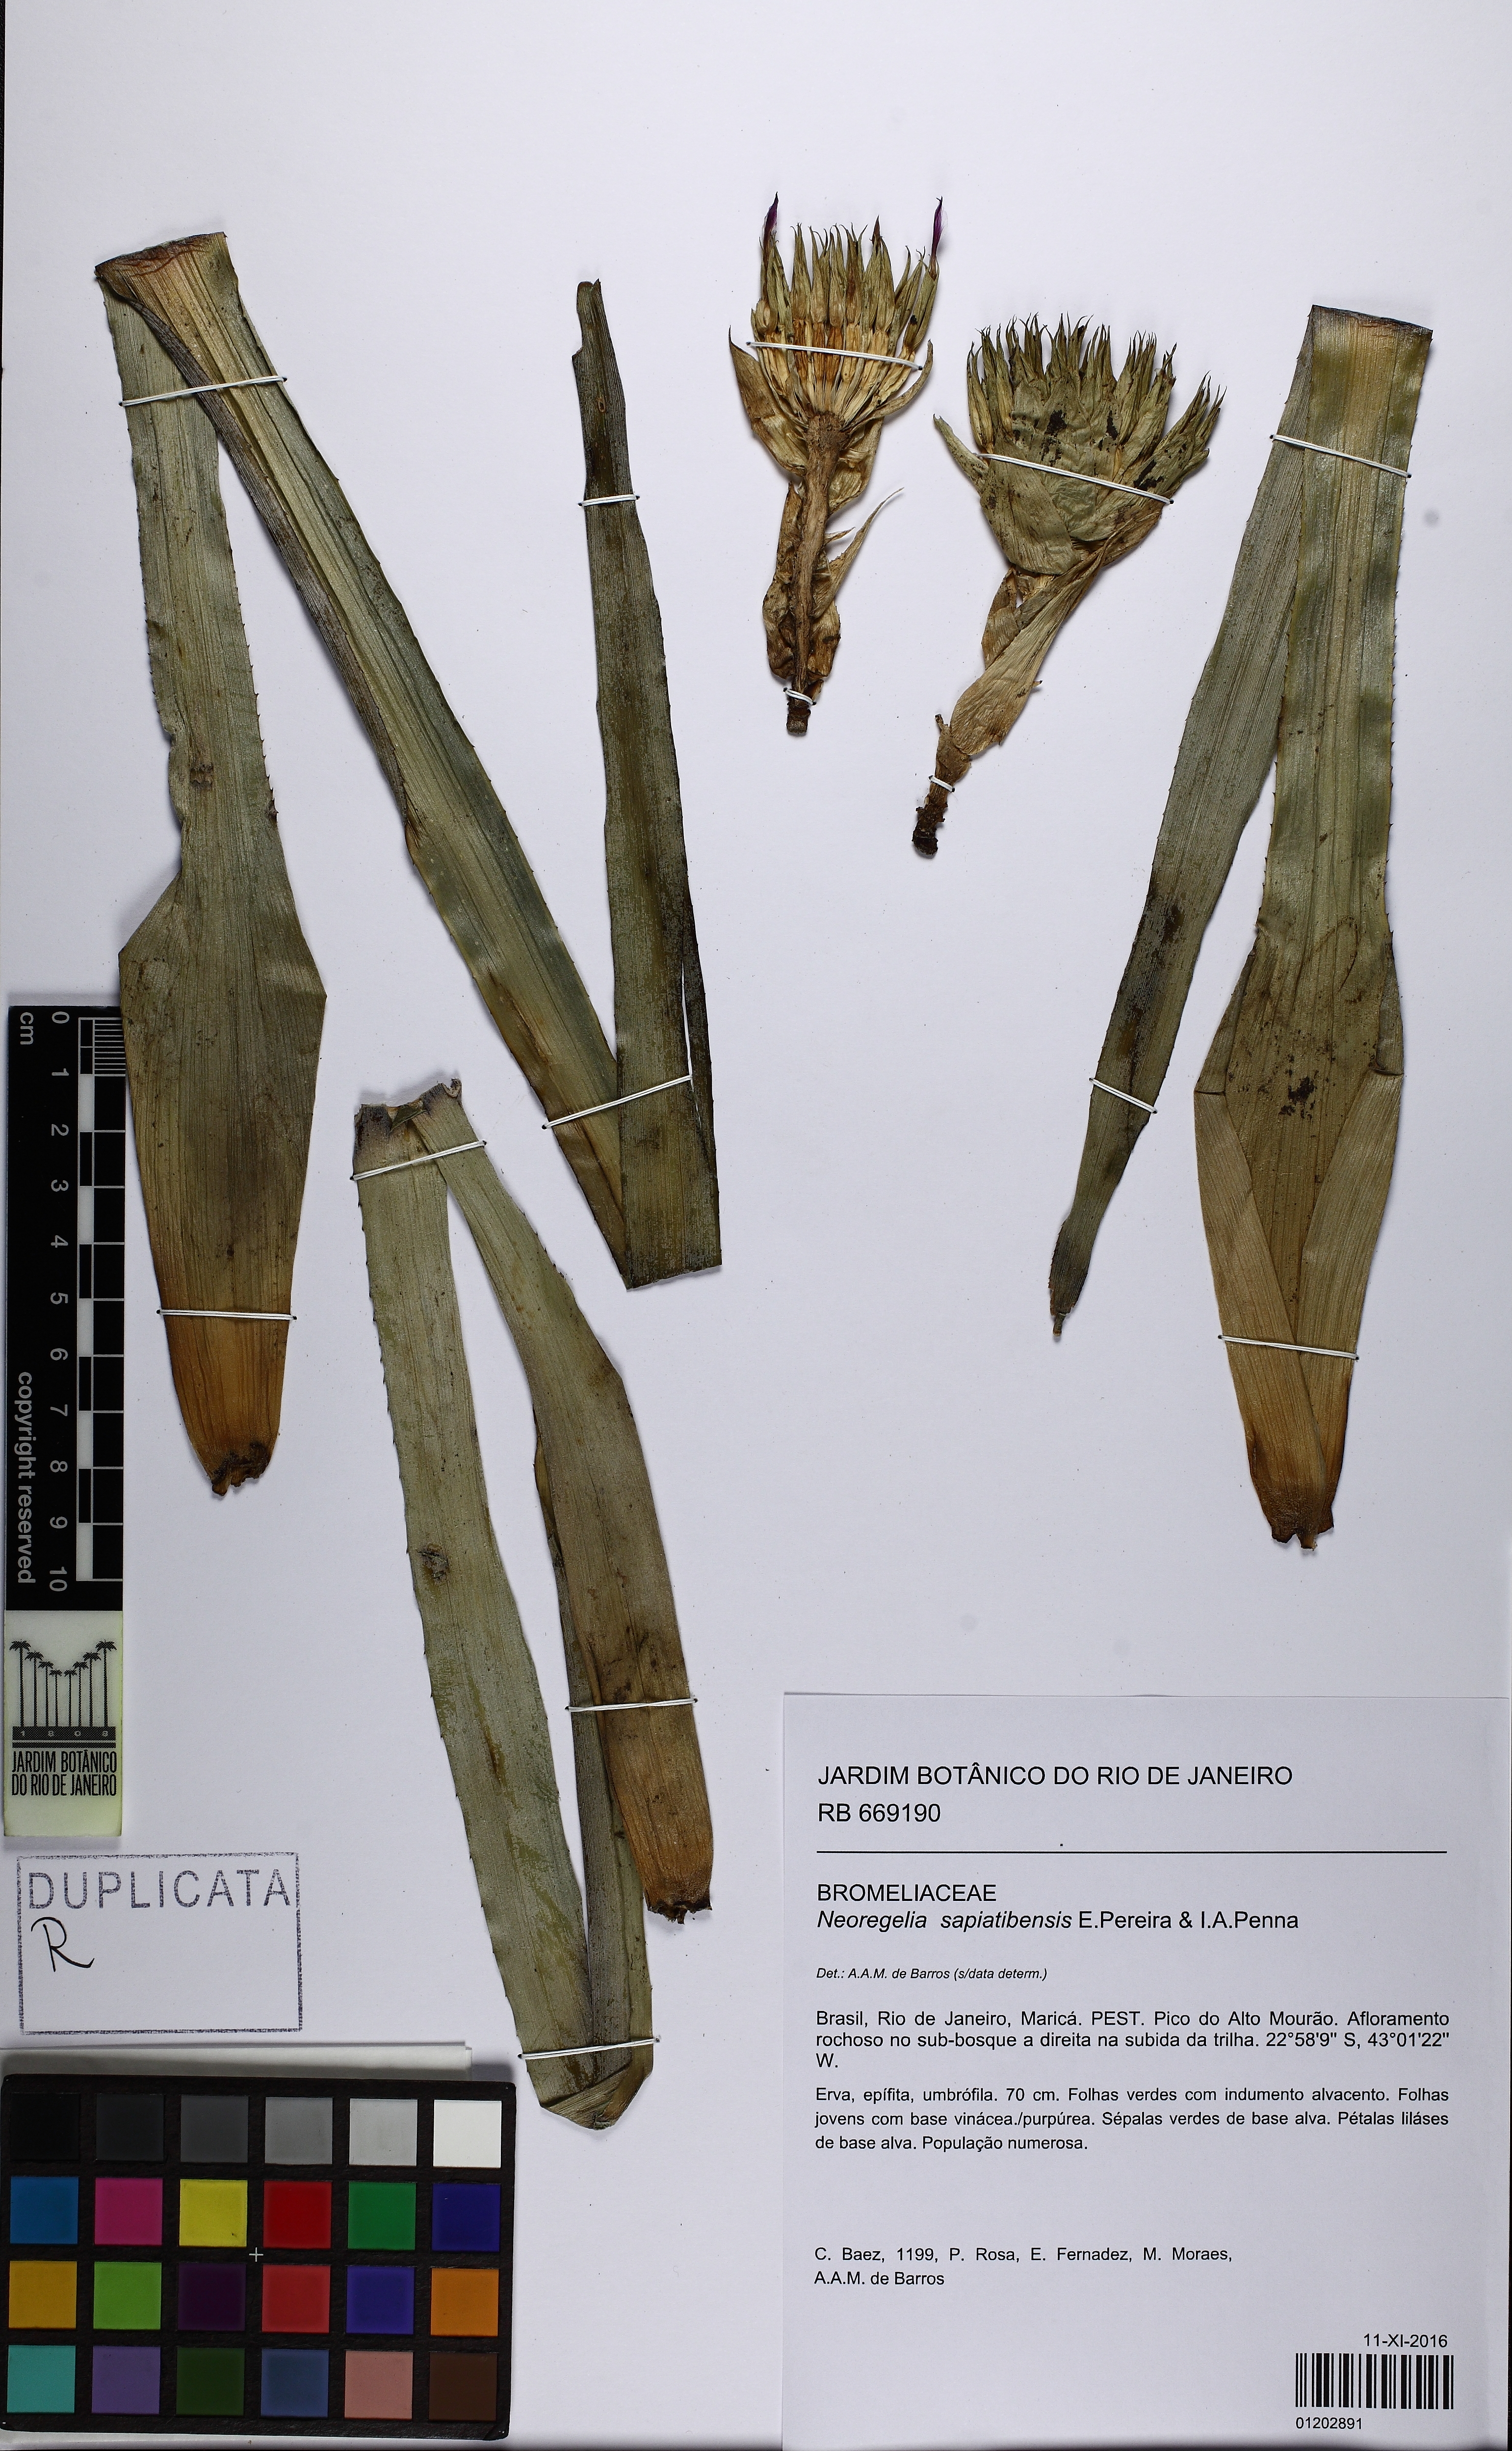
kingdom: Plantae
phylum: Tracheophyta
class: Liliopsida
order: Poales
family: Bromeliaceae
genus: Neoregelia
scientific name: Neoregelia sapiatibensis
